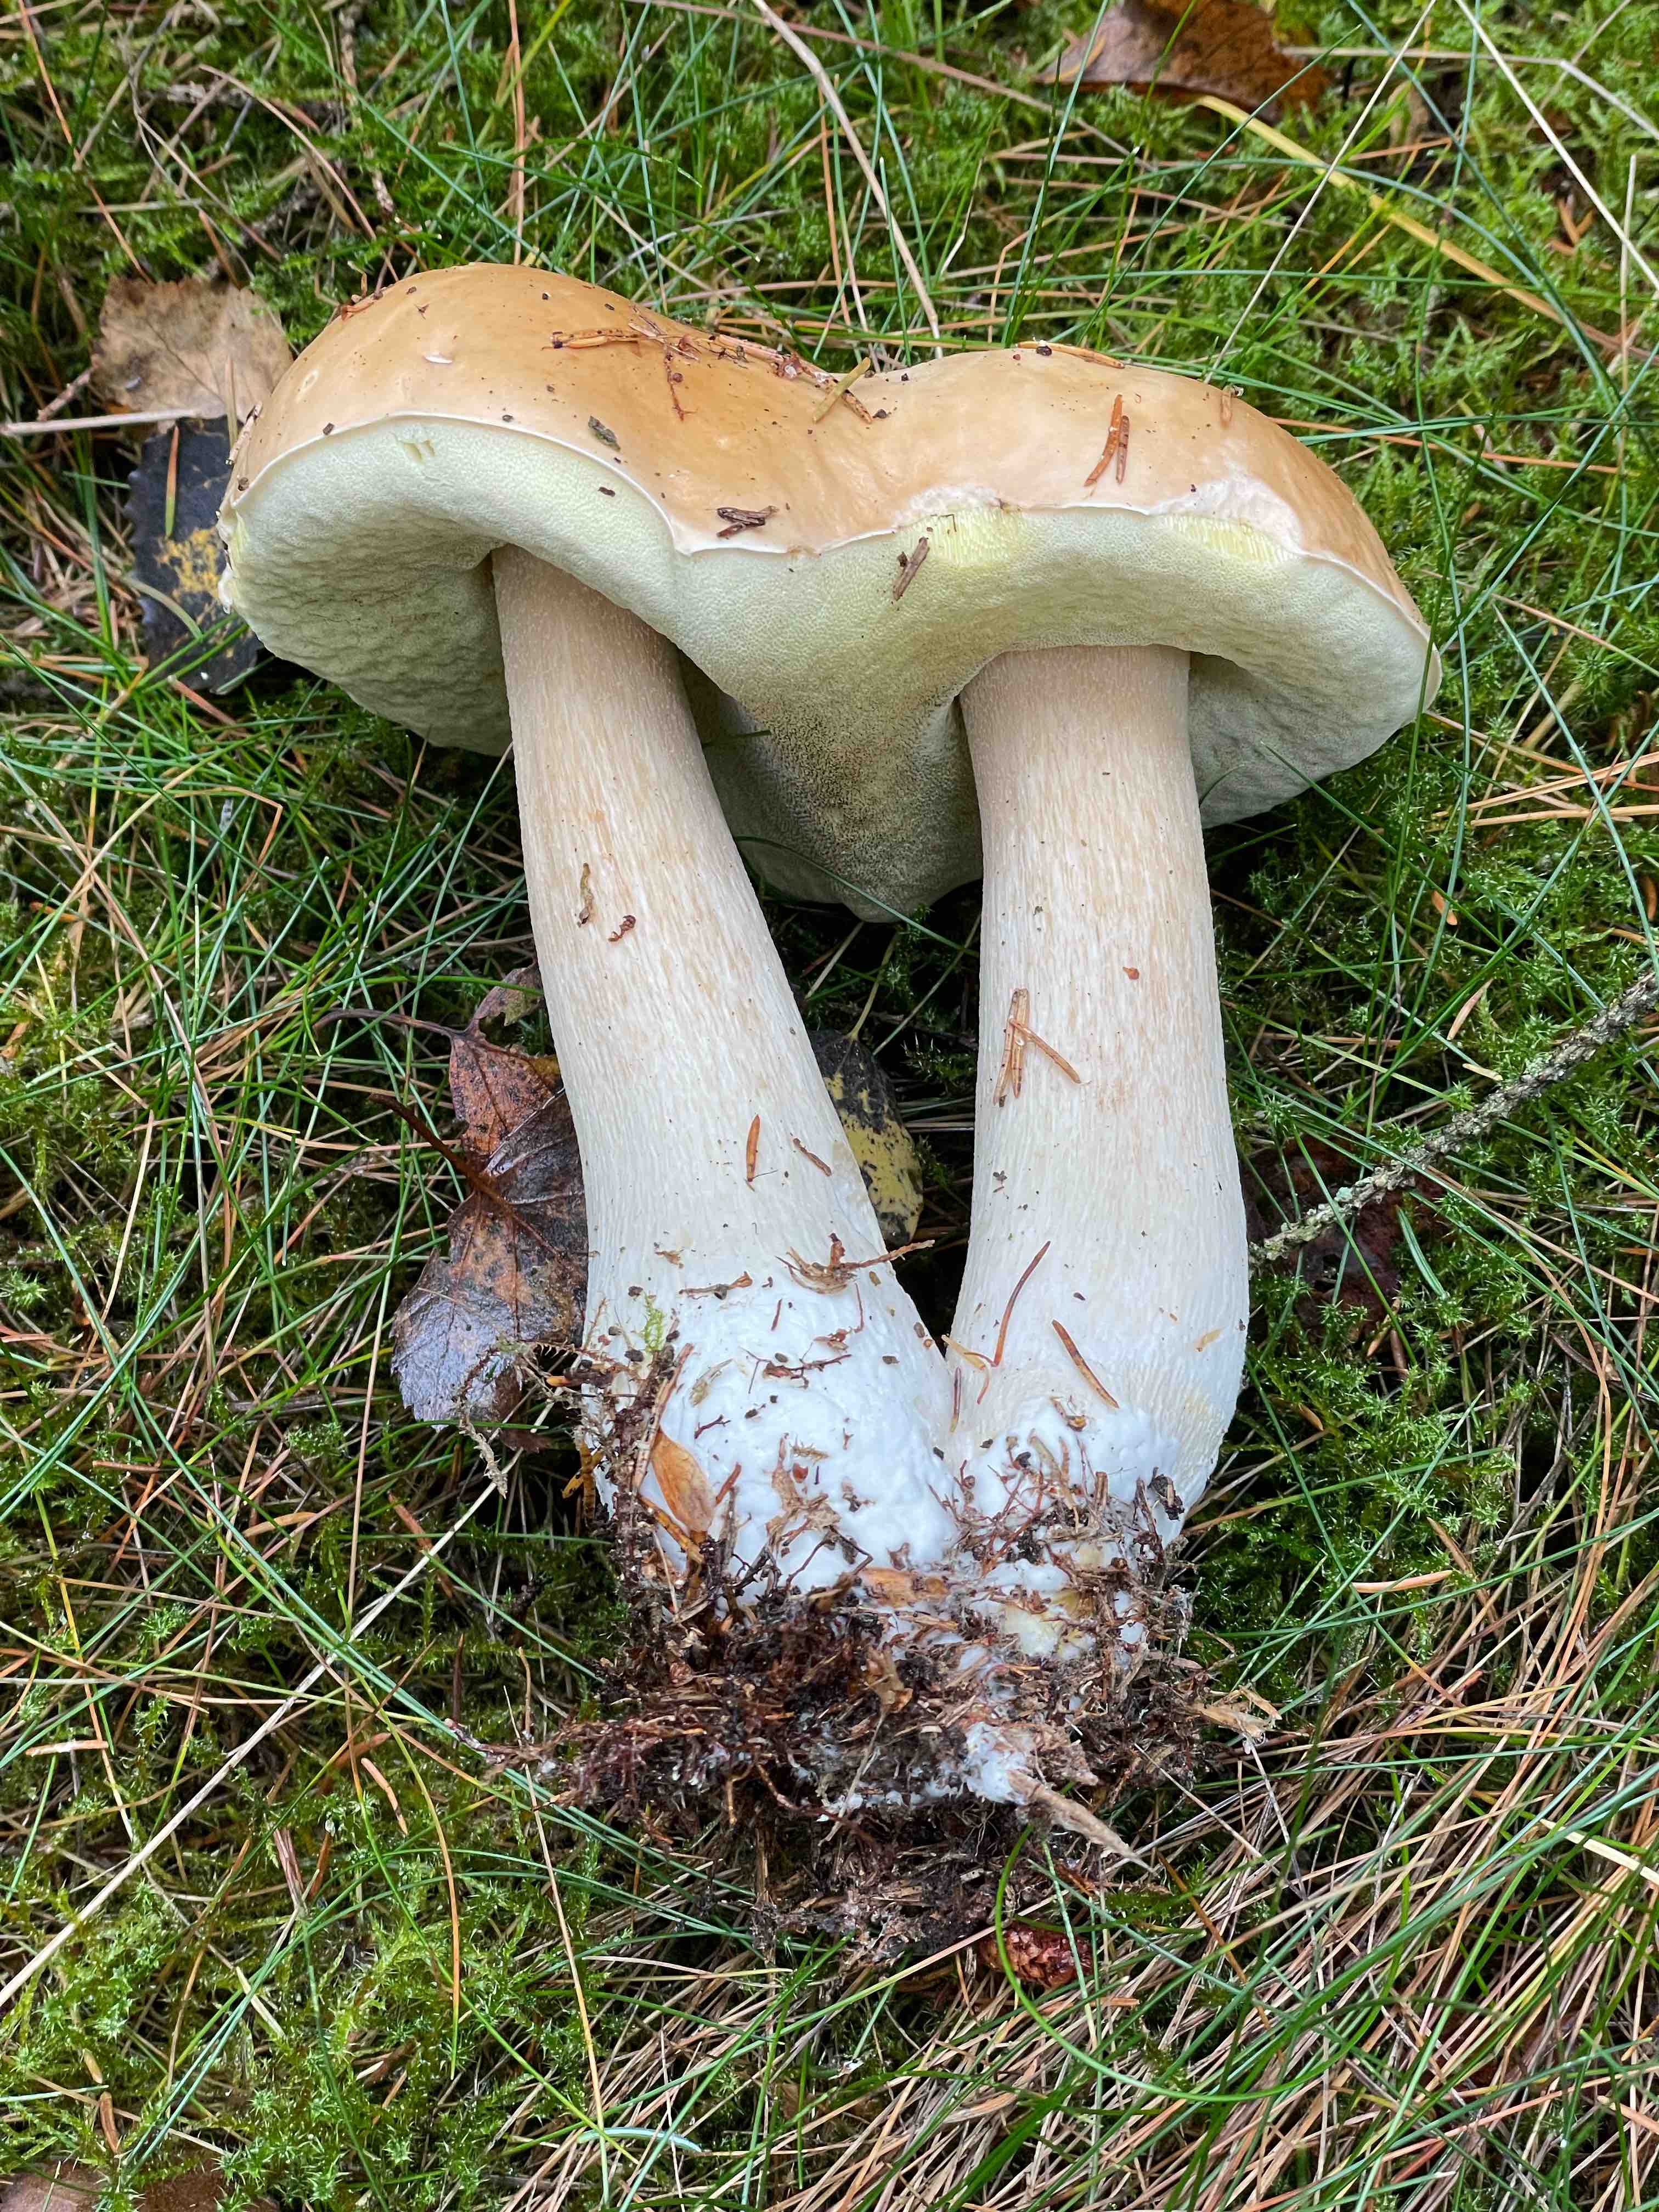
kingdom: Fungi
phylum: Basidiomycota
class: Agaricomycetes
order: Boletales
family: Boletaceae
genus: Boletus
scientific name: Boletus edulis
